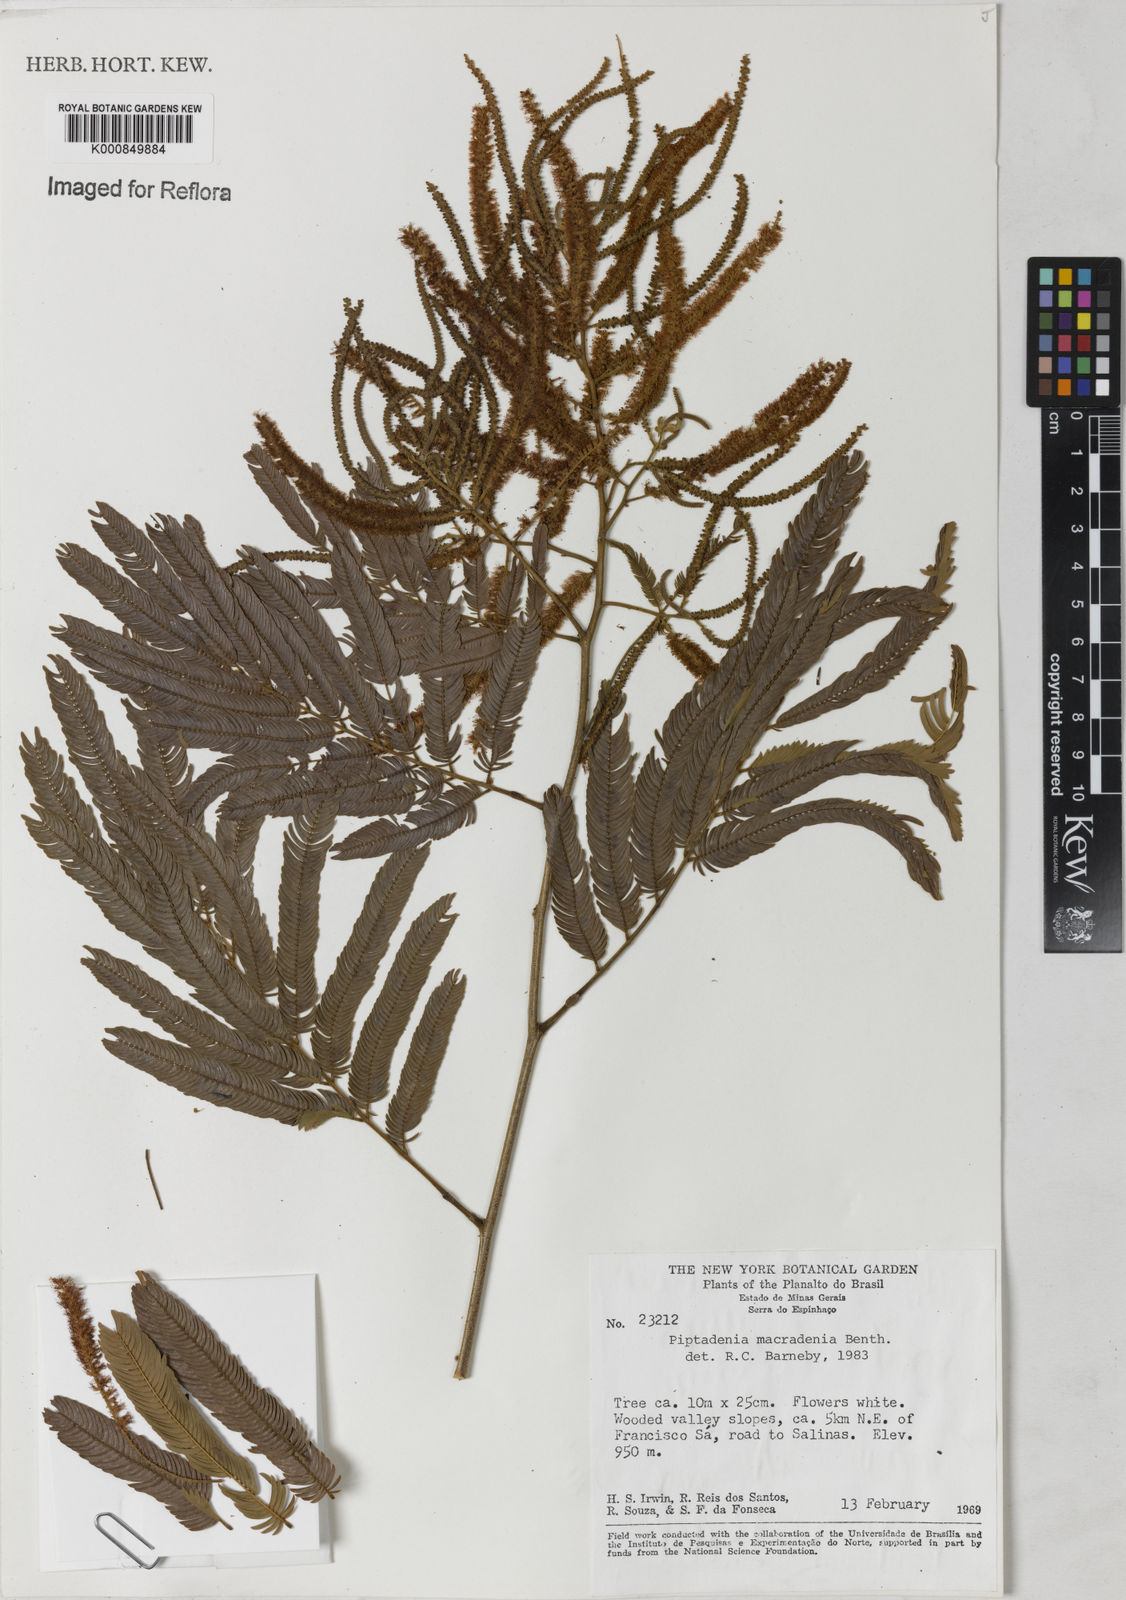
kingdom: Plantae
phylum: Tracheophyta
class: Magnoliopsida
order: Fabales
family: Fabaceae
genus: Piptadenia
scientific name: Piptadenia macradenia
